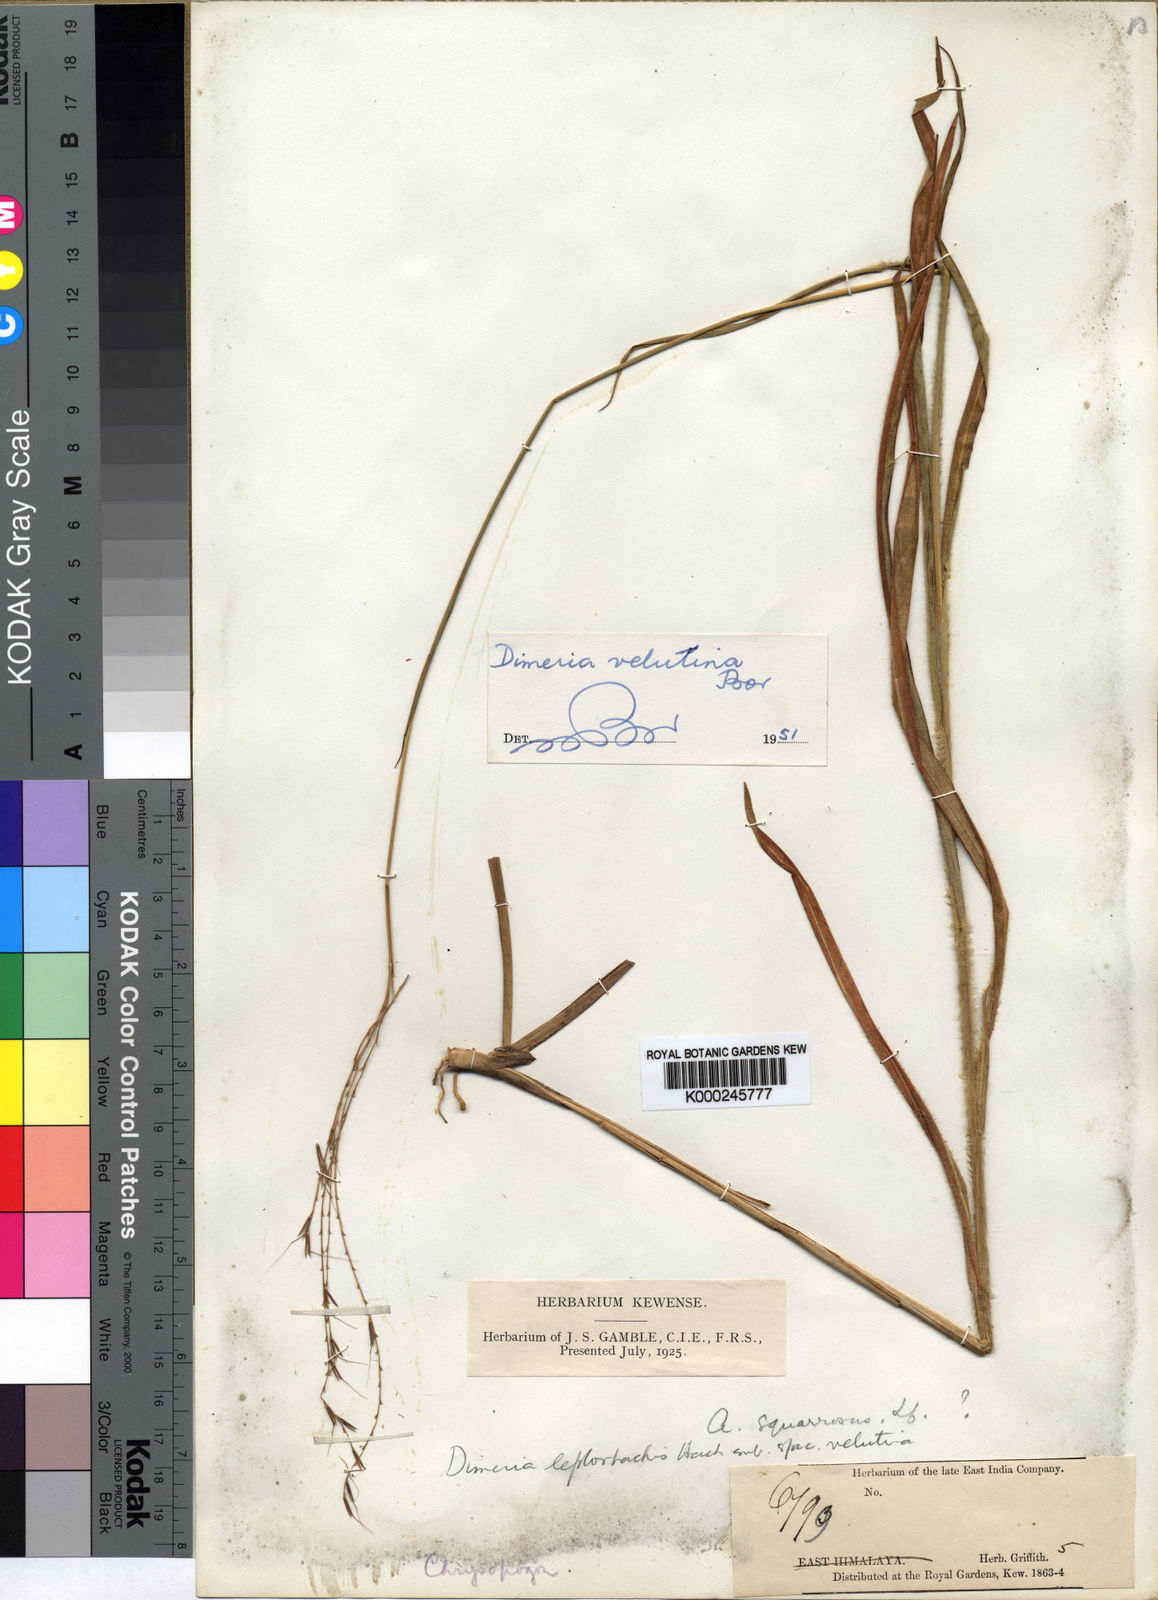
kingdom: Plantae
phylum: Tracheophyta
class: Liliopsida
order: Poales
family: Poaceae
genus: Dimeria
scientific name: Dimeria gracilis
